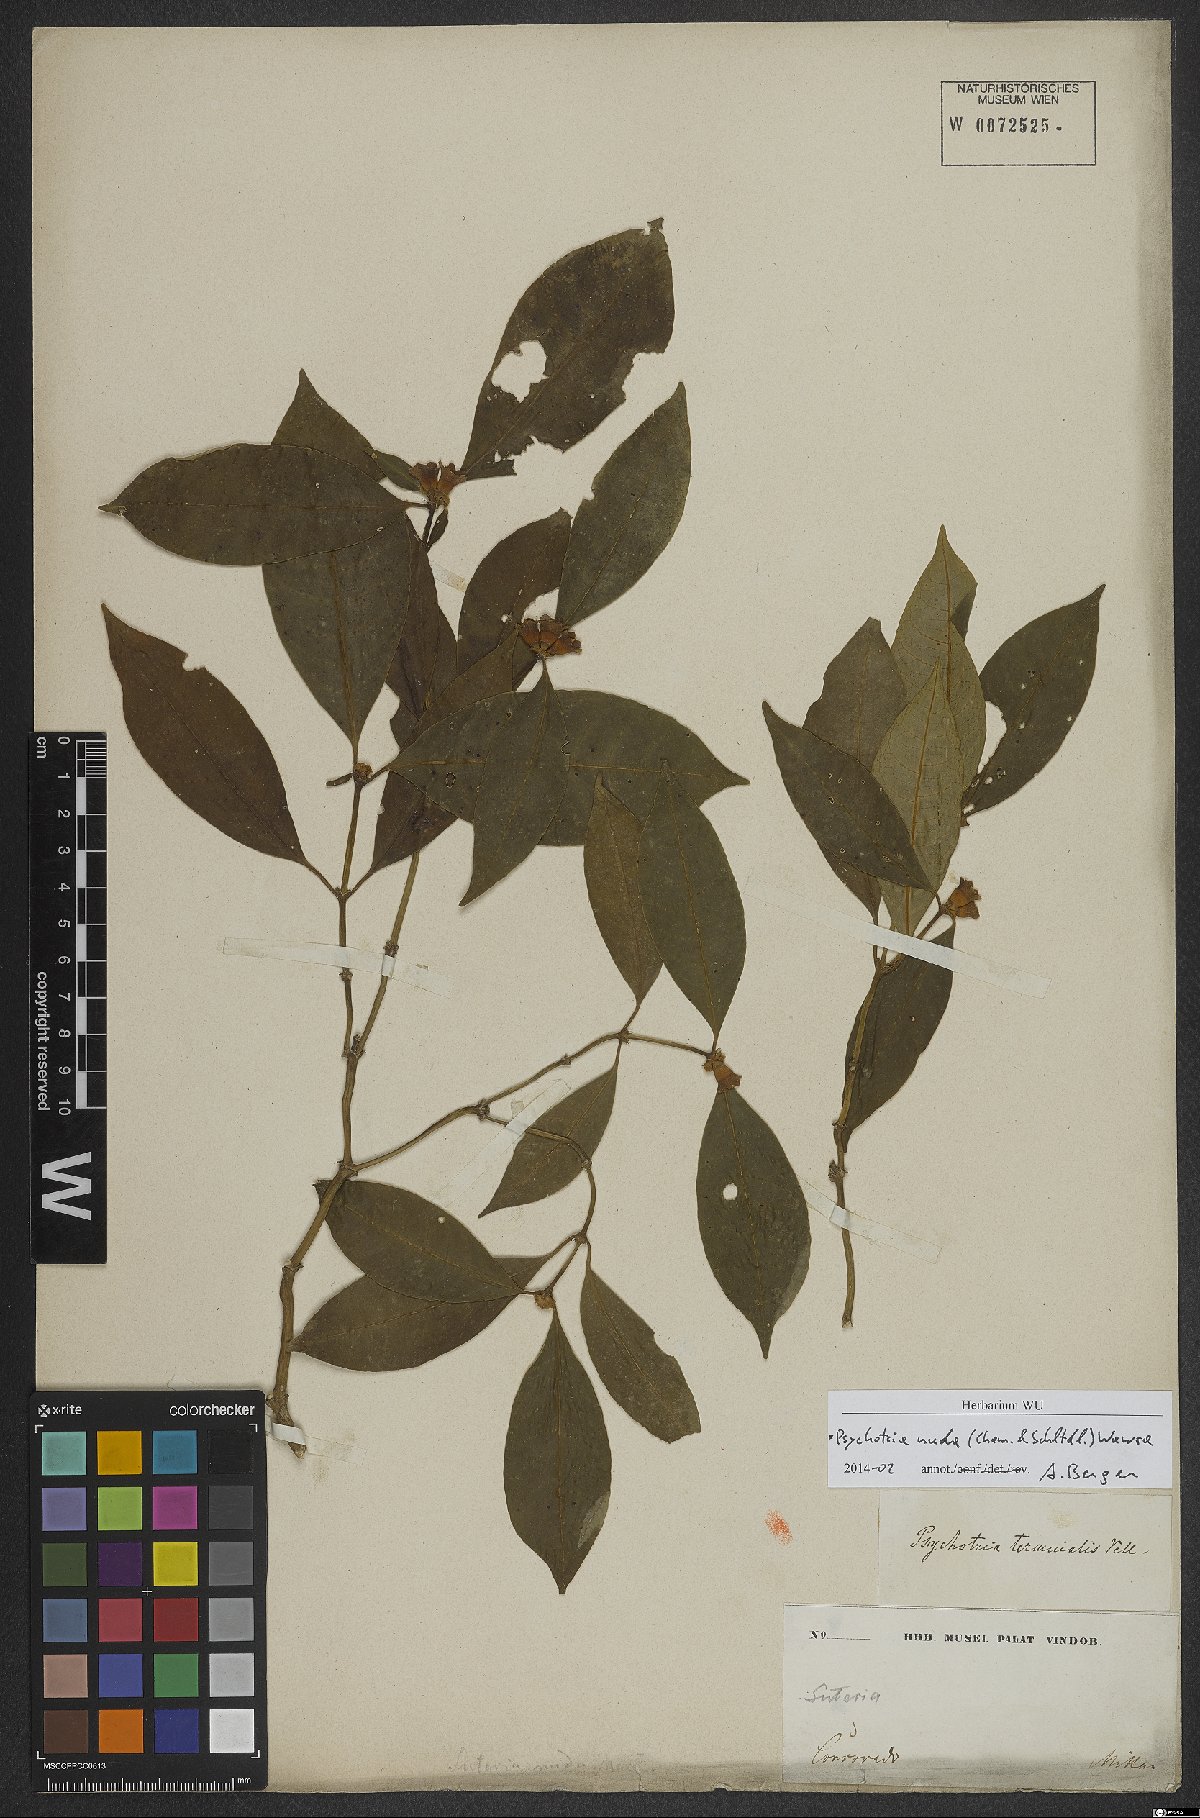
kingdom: Plantae
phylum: Tracheophyta
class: Magnoliopsida
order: Gentianales
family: Rubiaceae
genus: Psychotria
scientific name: Psychotria nuda
